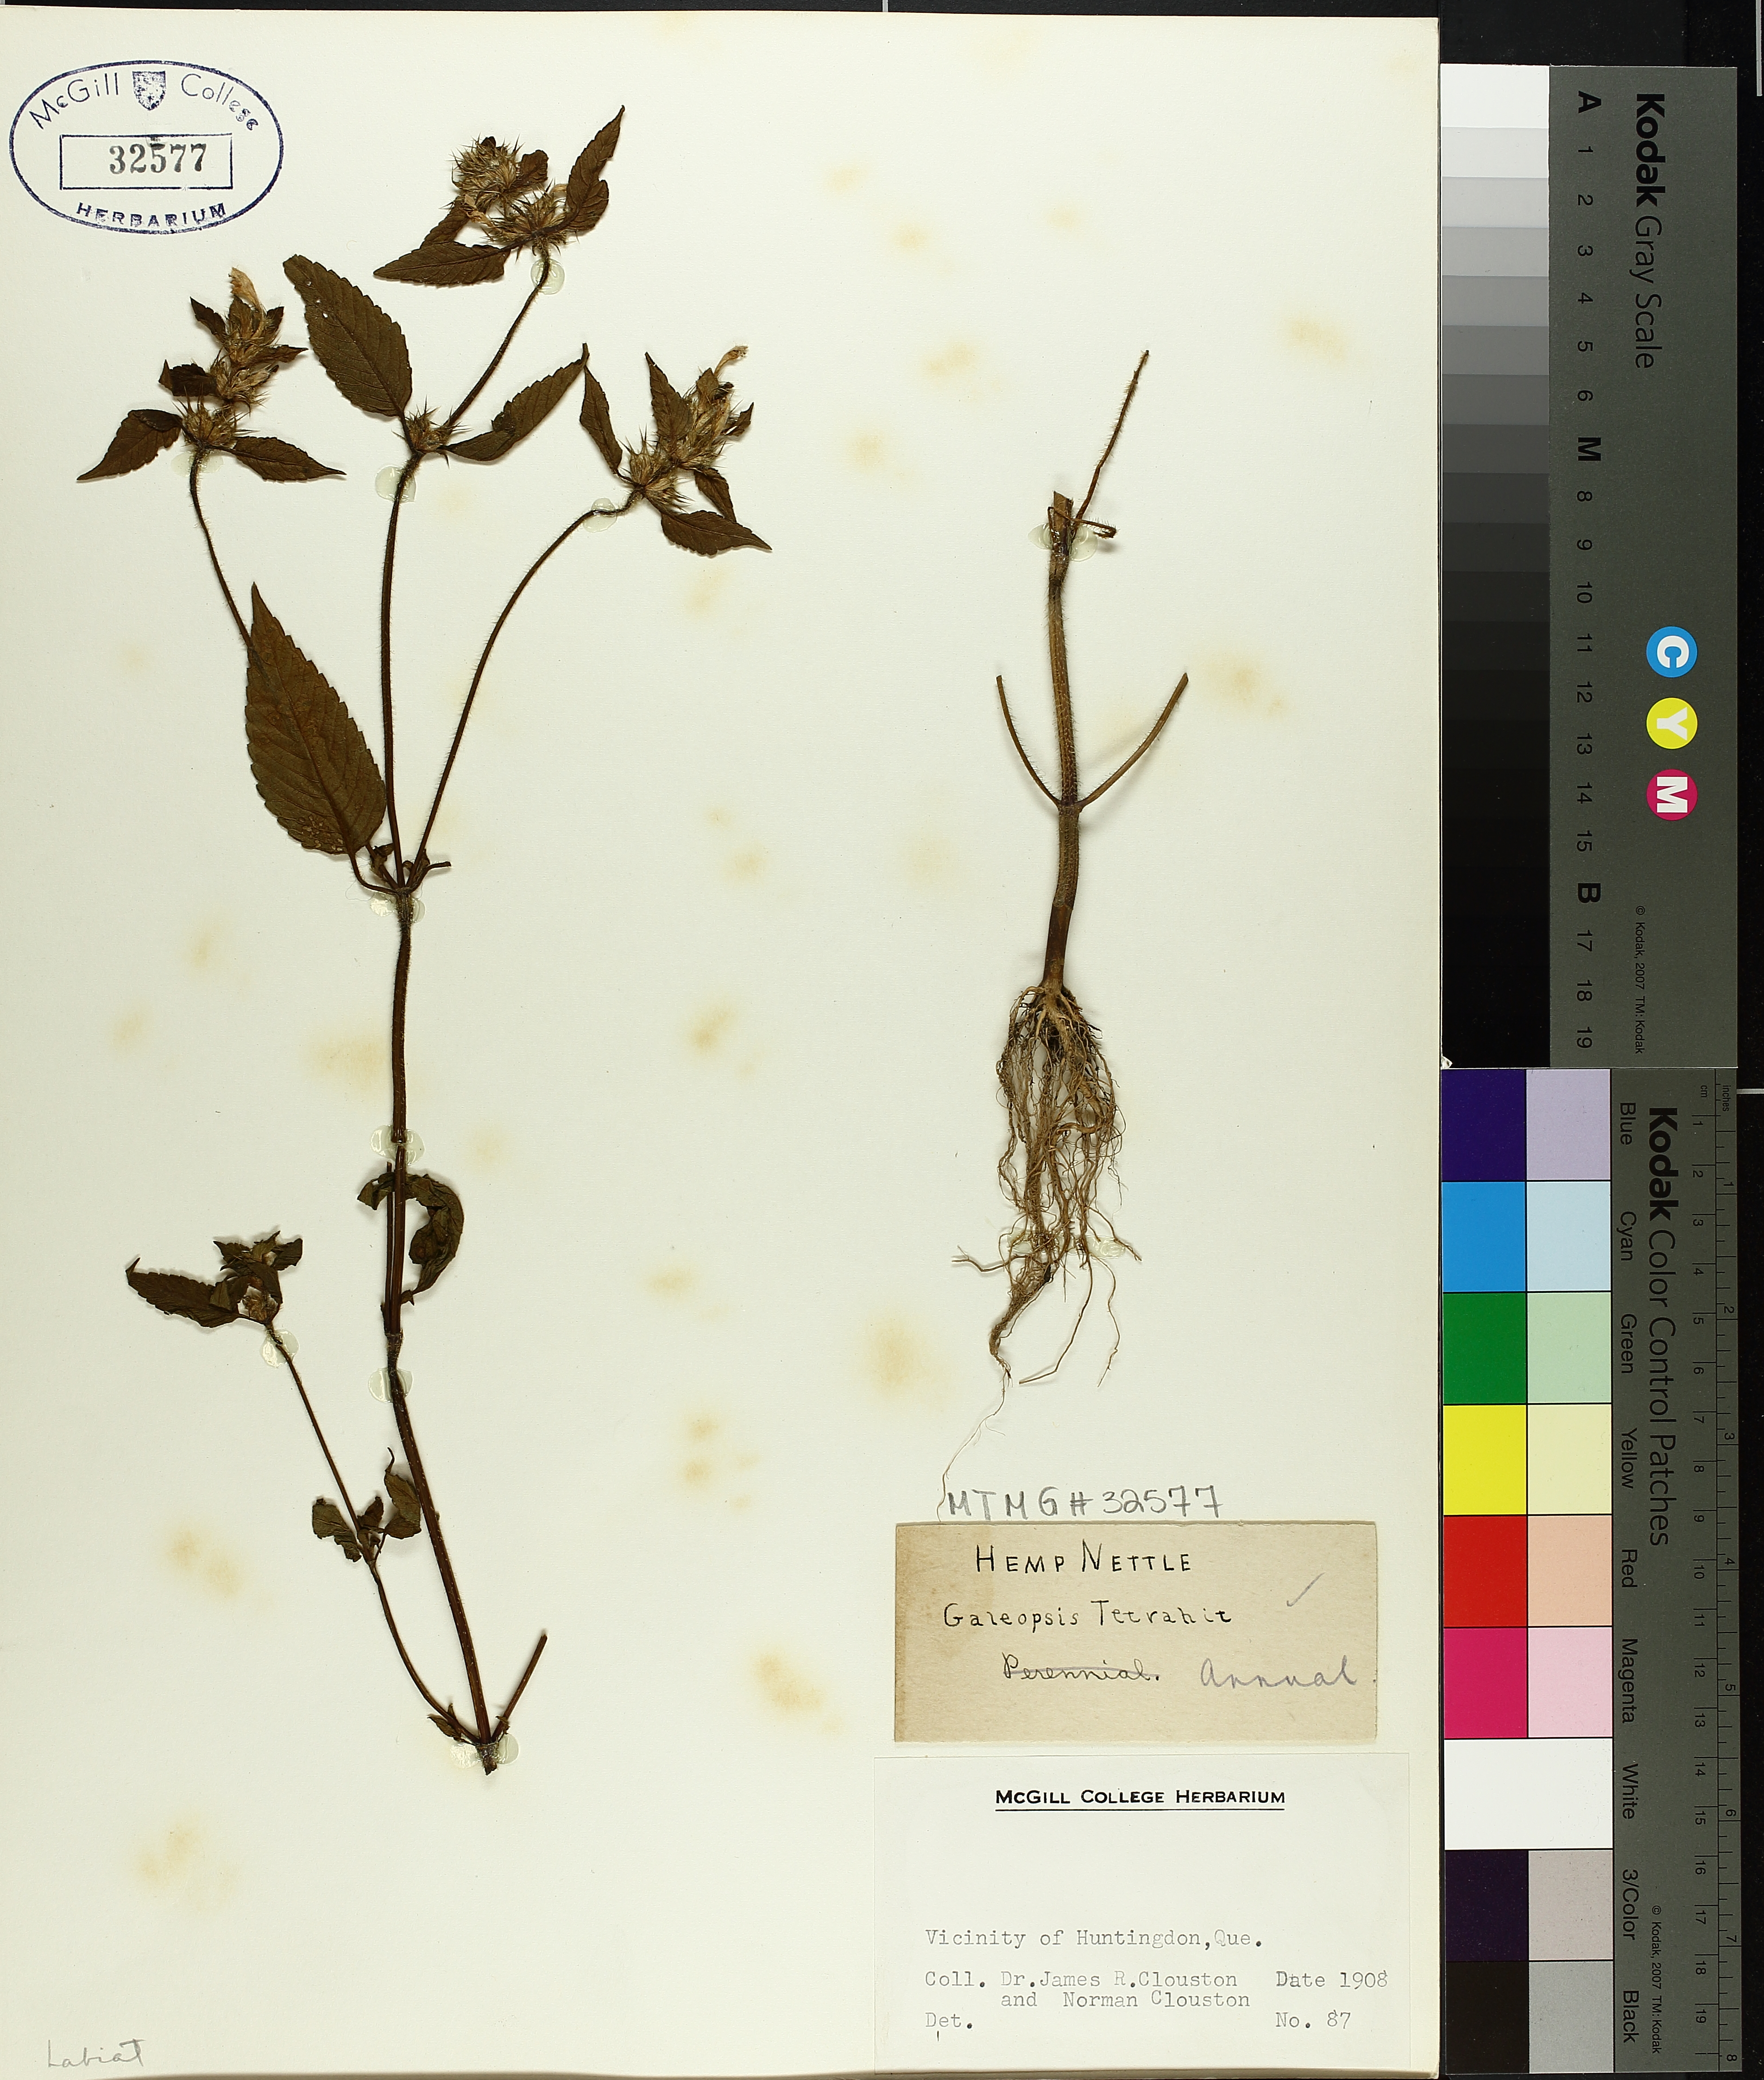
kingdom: Plantae
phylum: Tracheophyta
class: Magnoliopsida
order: Lamiales
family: Lamiaceae
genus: Galeopsis
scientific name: Galeopsis tetrahit
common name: Common hemp-nettle
